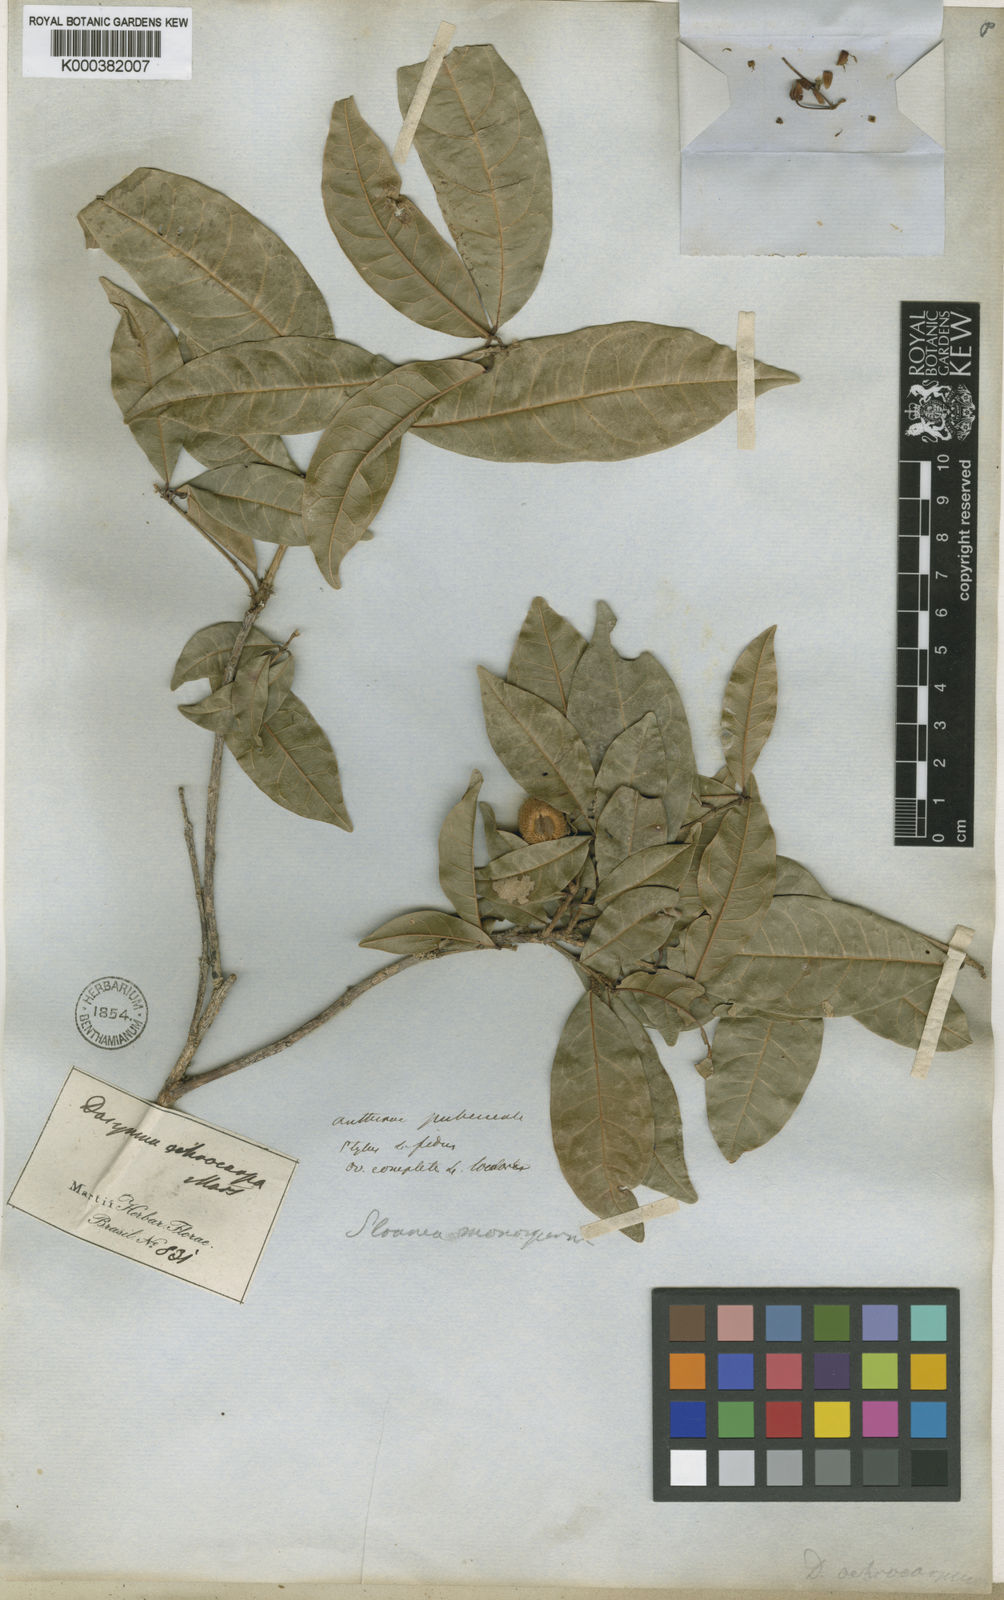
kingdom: Plantae
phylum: Tracheophyta
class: Magnoliopsida
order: Oxalidales
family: Elaeocarpaceae
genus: Sloanea
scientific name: Sloanea hirsuta
